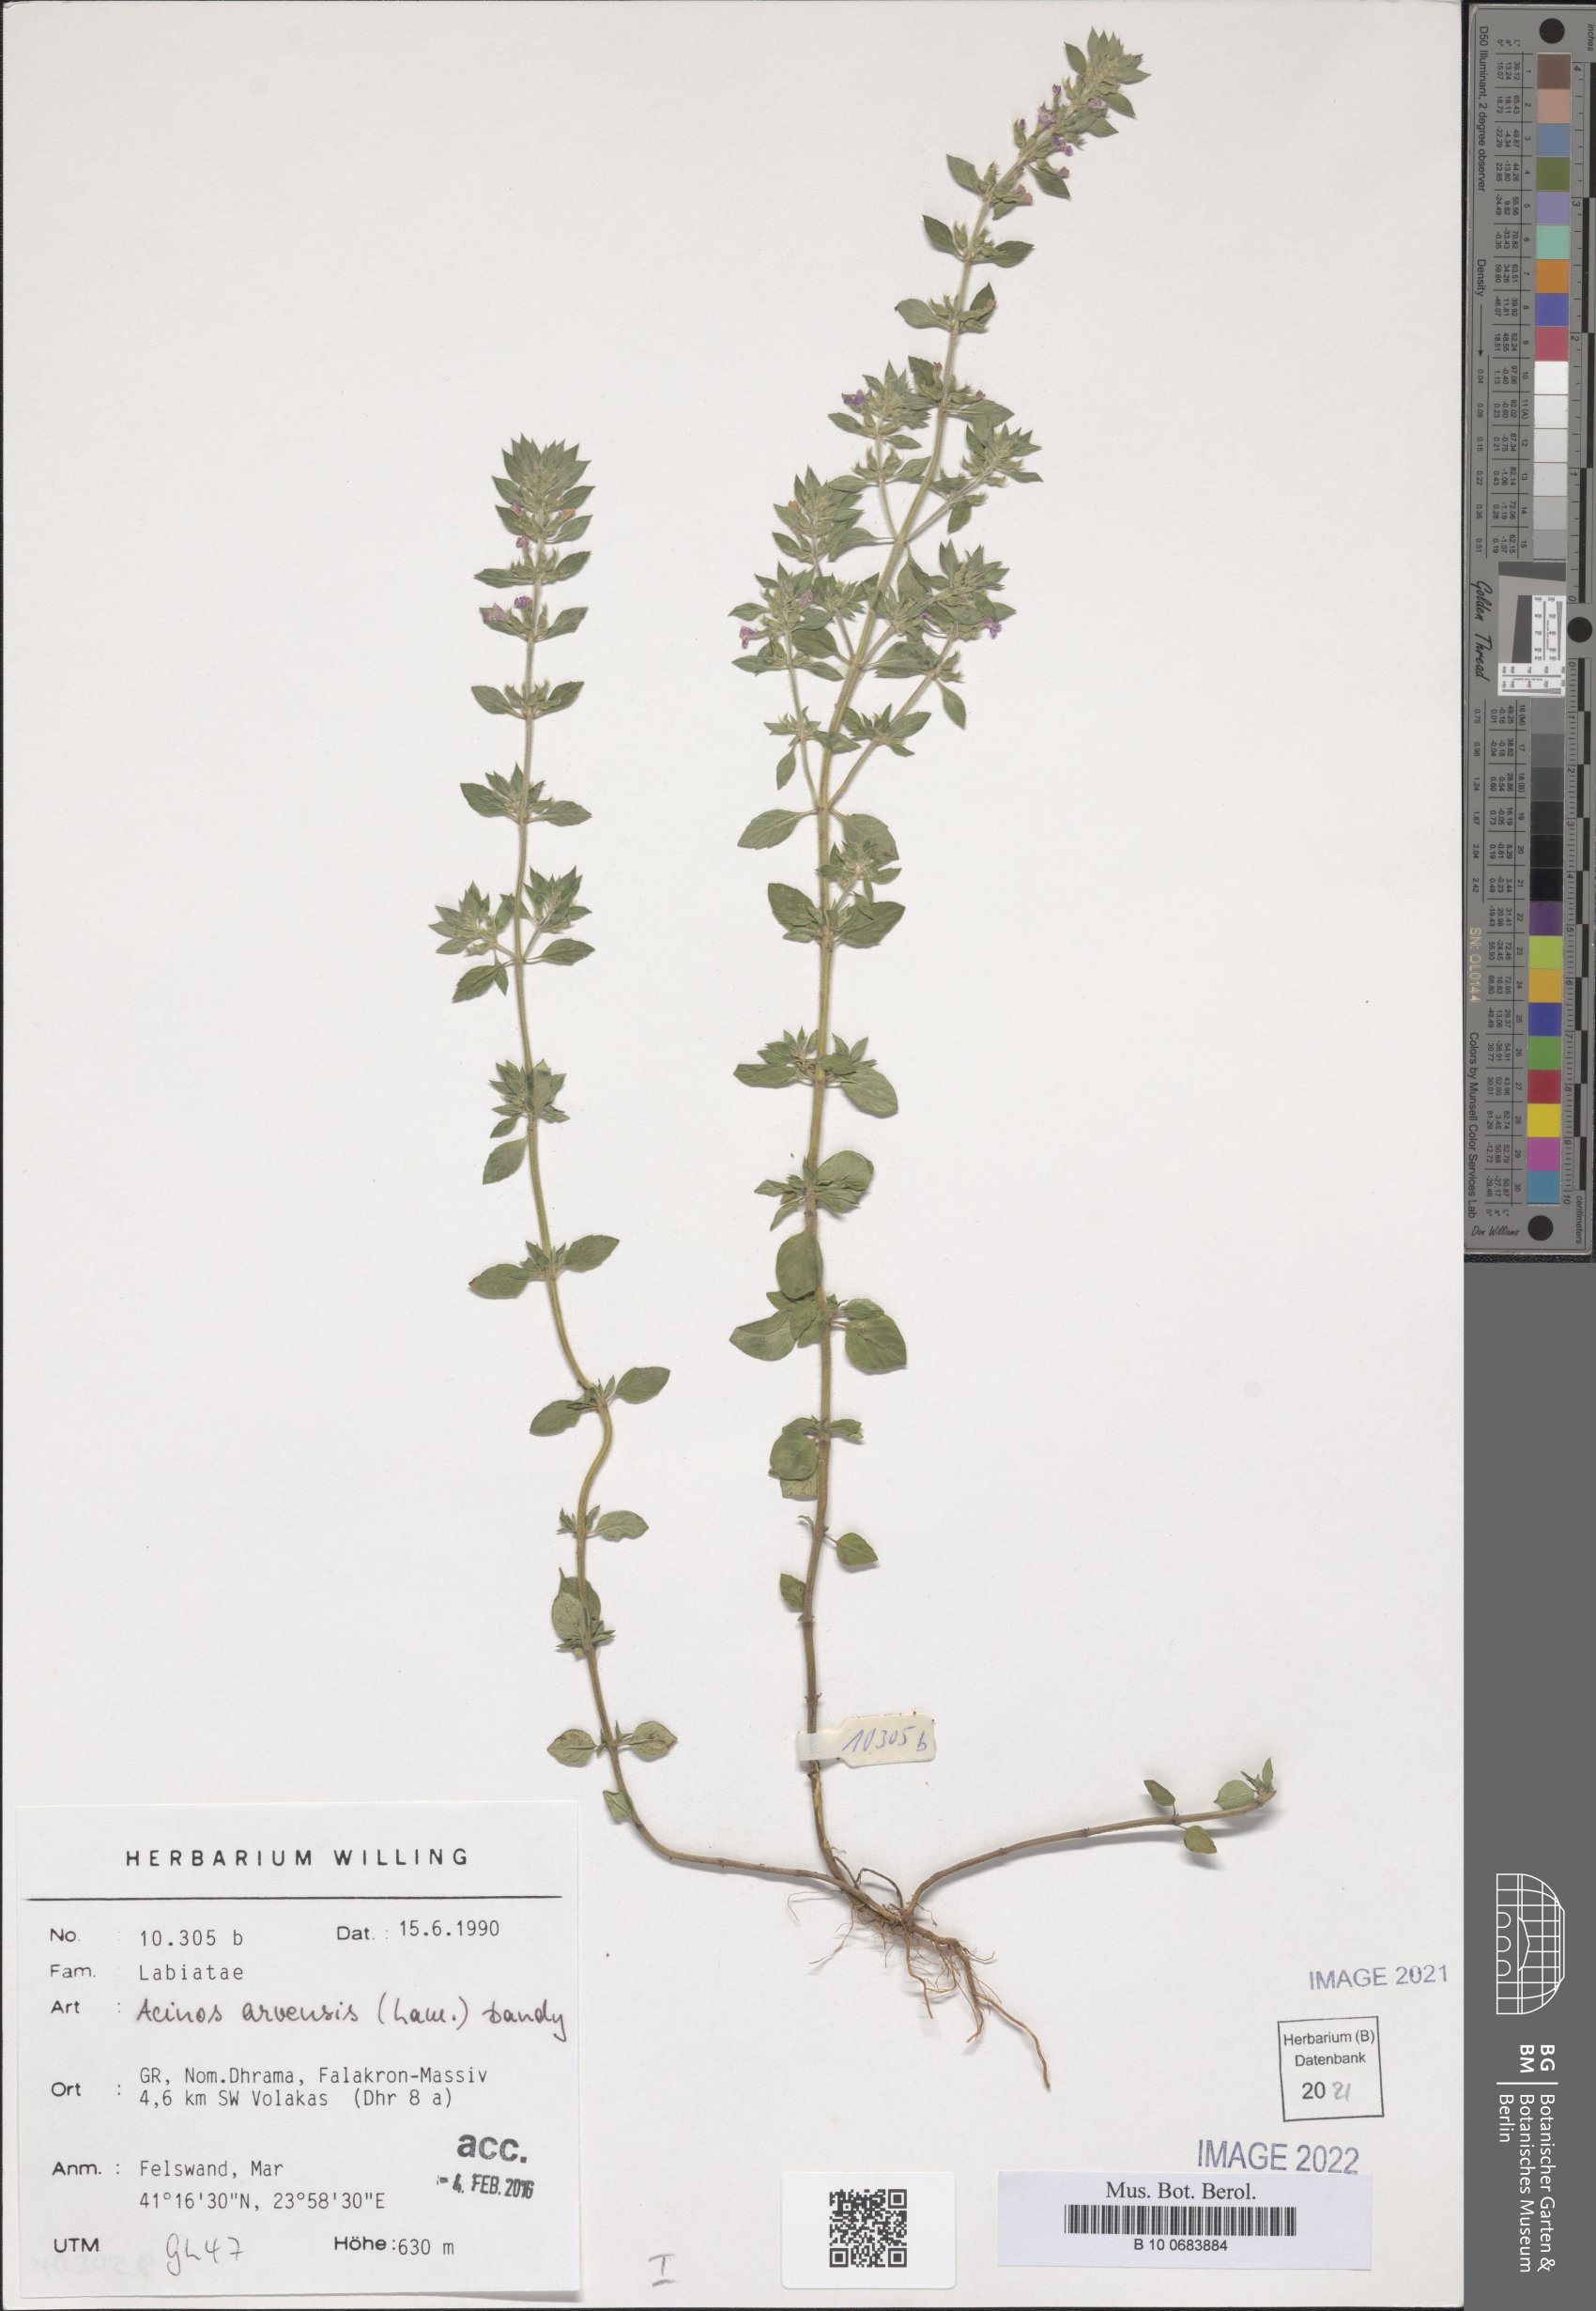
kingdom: Plantae
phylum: Tracheophyta
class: Magnoliopsida
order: Lamiales
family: Lamiaceae
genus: Clinopodium
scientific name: Clinopodium acinos
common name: Basil thyme
